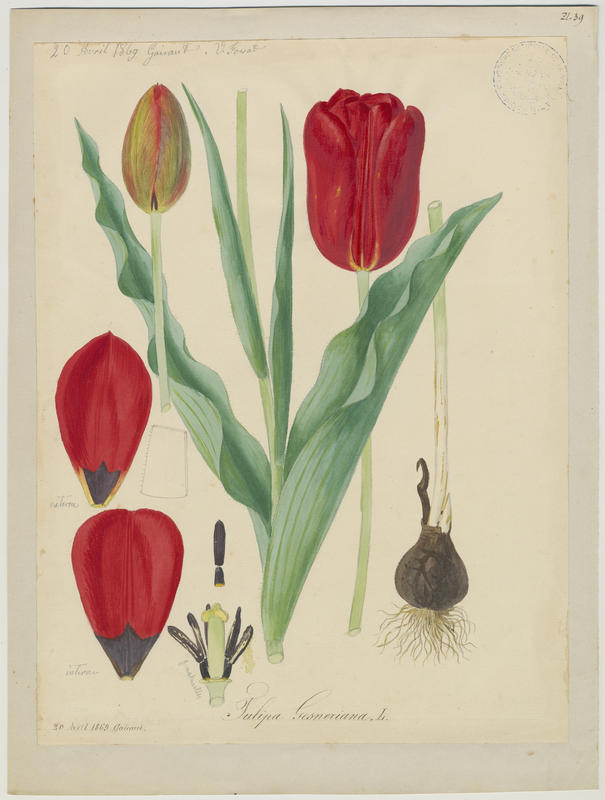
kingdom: Plantae
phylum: Tracheophyta
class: Liliopsida
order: Liliales
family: Liliaceae
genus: Tulipa
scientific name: Tulipa gesneriana
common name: Garden tulip
